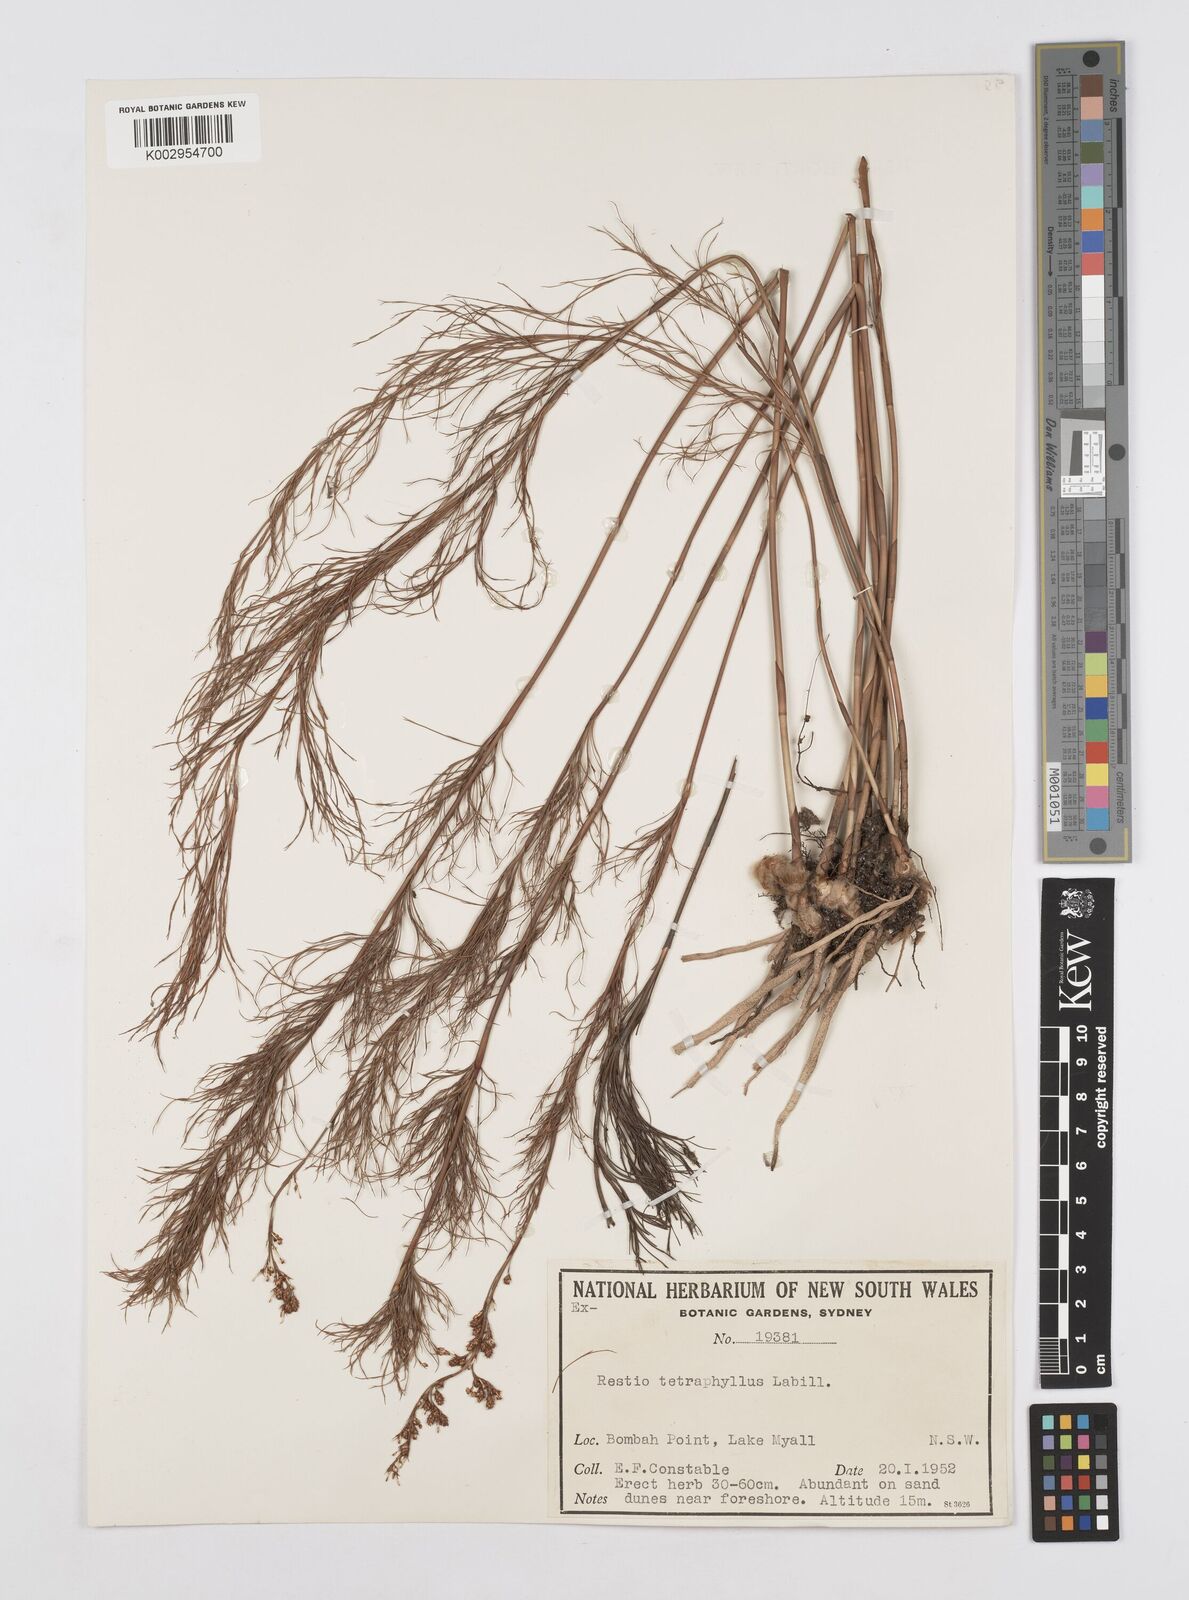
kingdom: Plantae
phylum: Tracheophyta
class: Liliopsida
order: Poales
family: Restionaceae
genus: Baloskion
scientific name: Baloskion tetraphyllum
